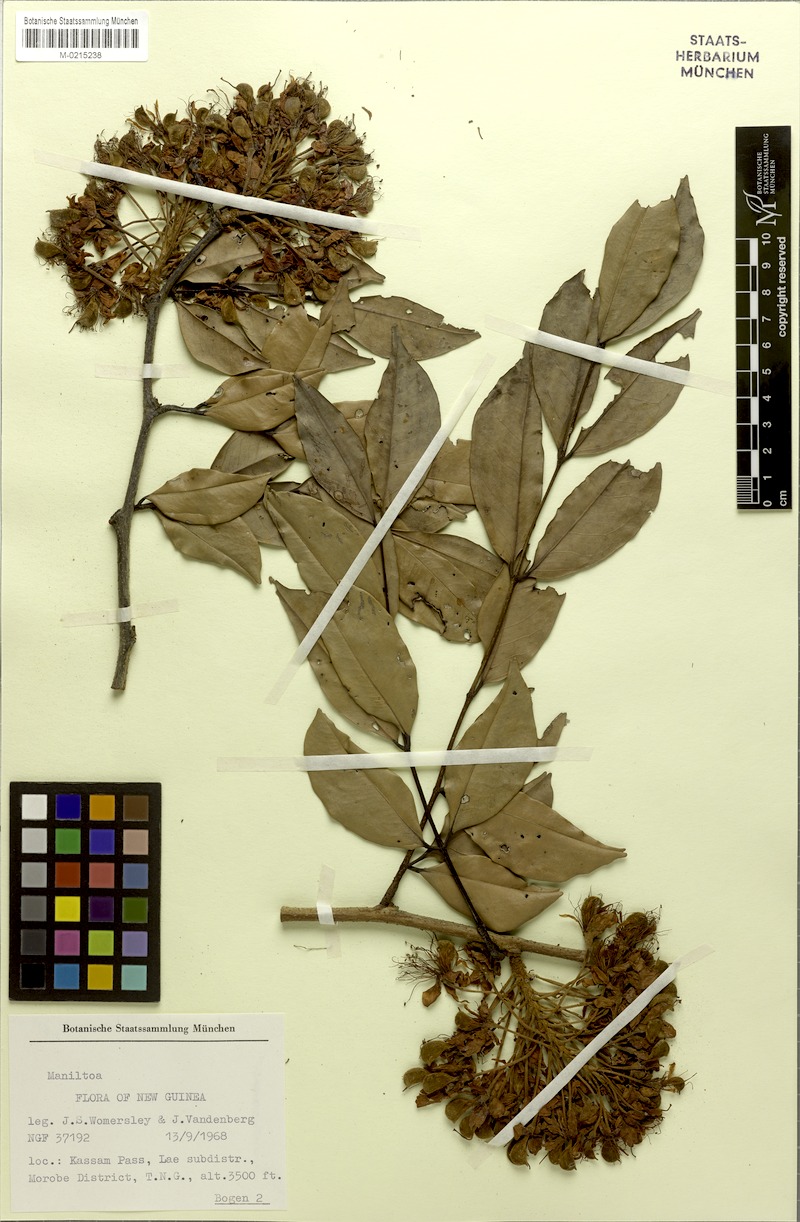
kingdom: Plantae
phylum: Tracheophyta
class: Magnoliopsida
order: Fabales
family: Fabaceae
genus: Cynometra
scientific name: Cynometra lenticellata
